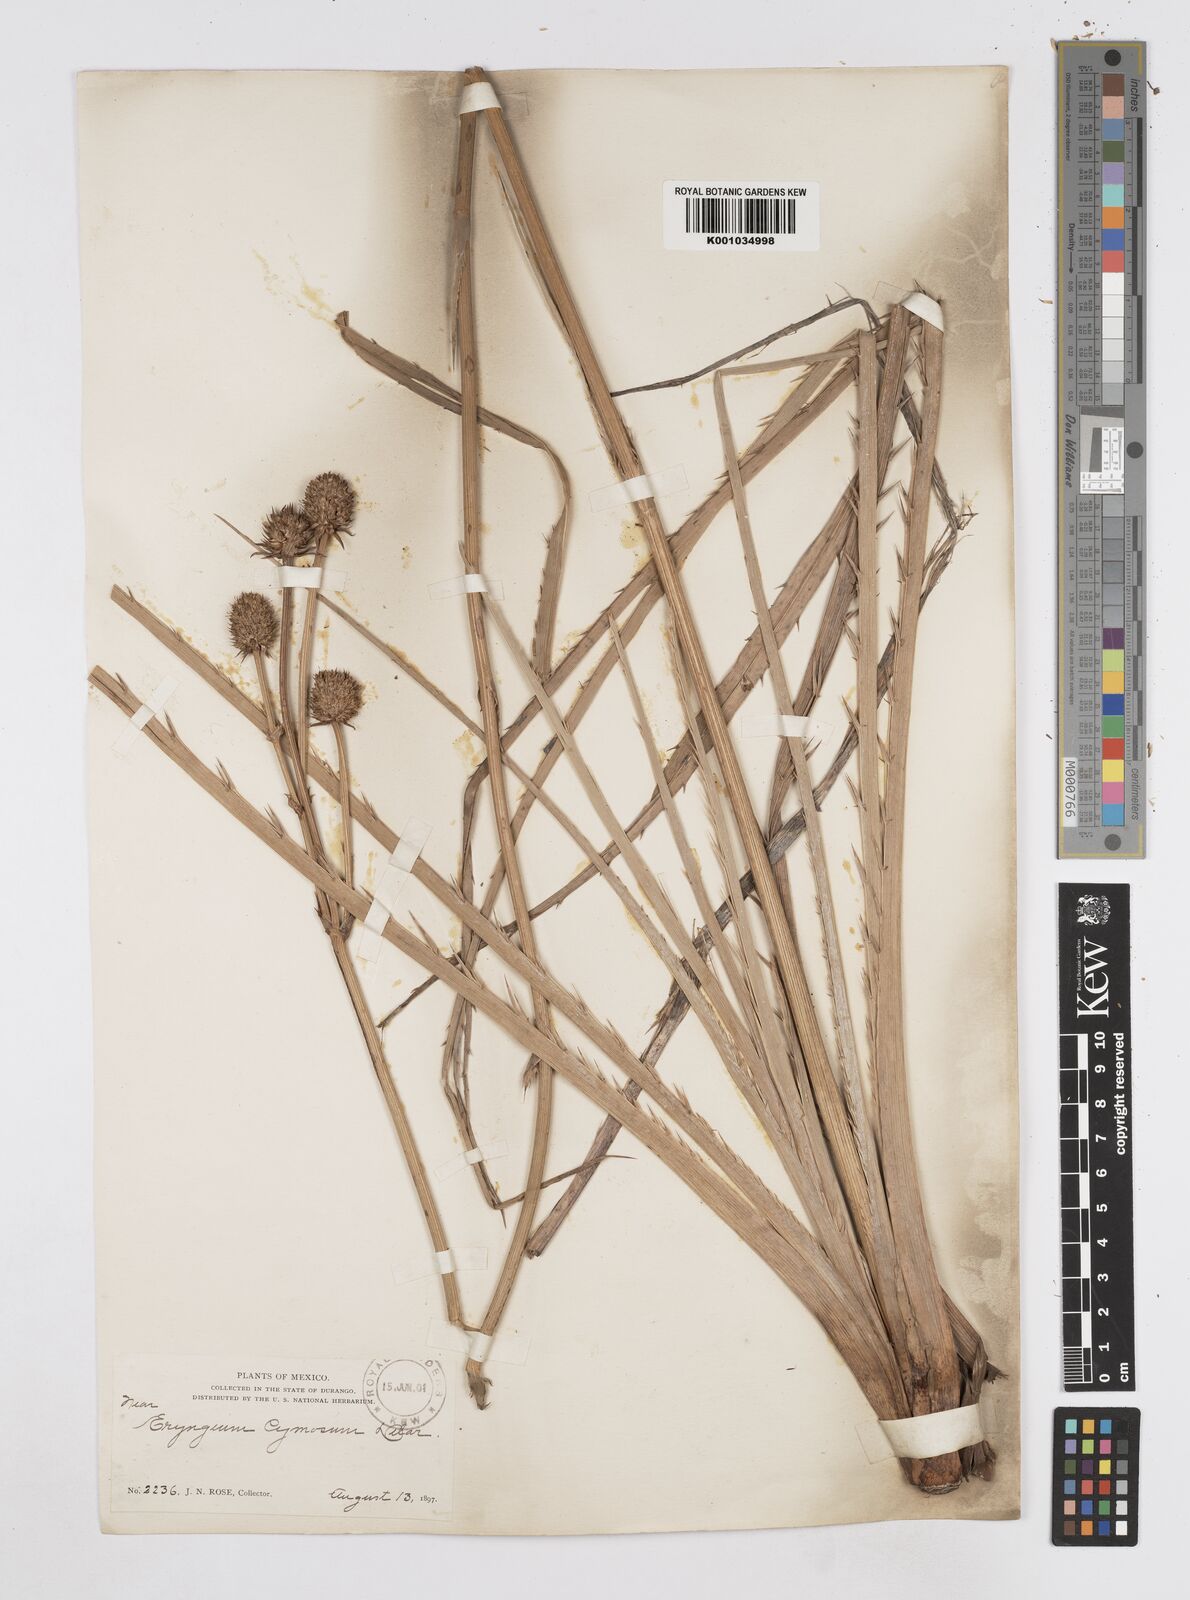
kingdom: Plantae
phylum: Tracheophyta
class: Magnoliopsida
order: Apiales
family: Apiaceae
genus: Eryngium
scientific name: Eryngium cymosum
